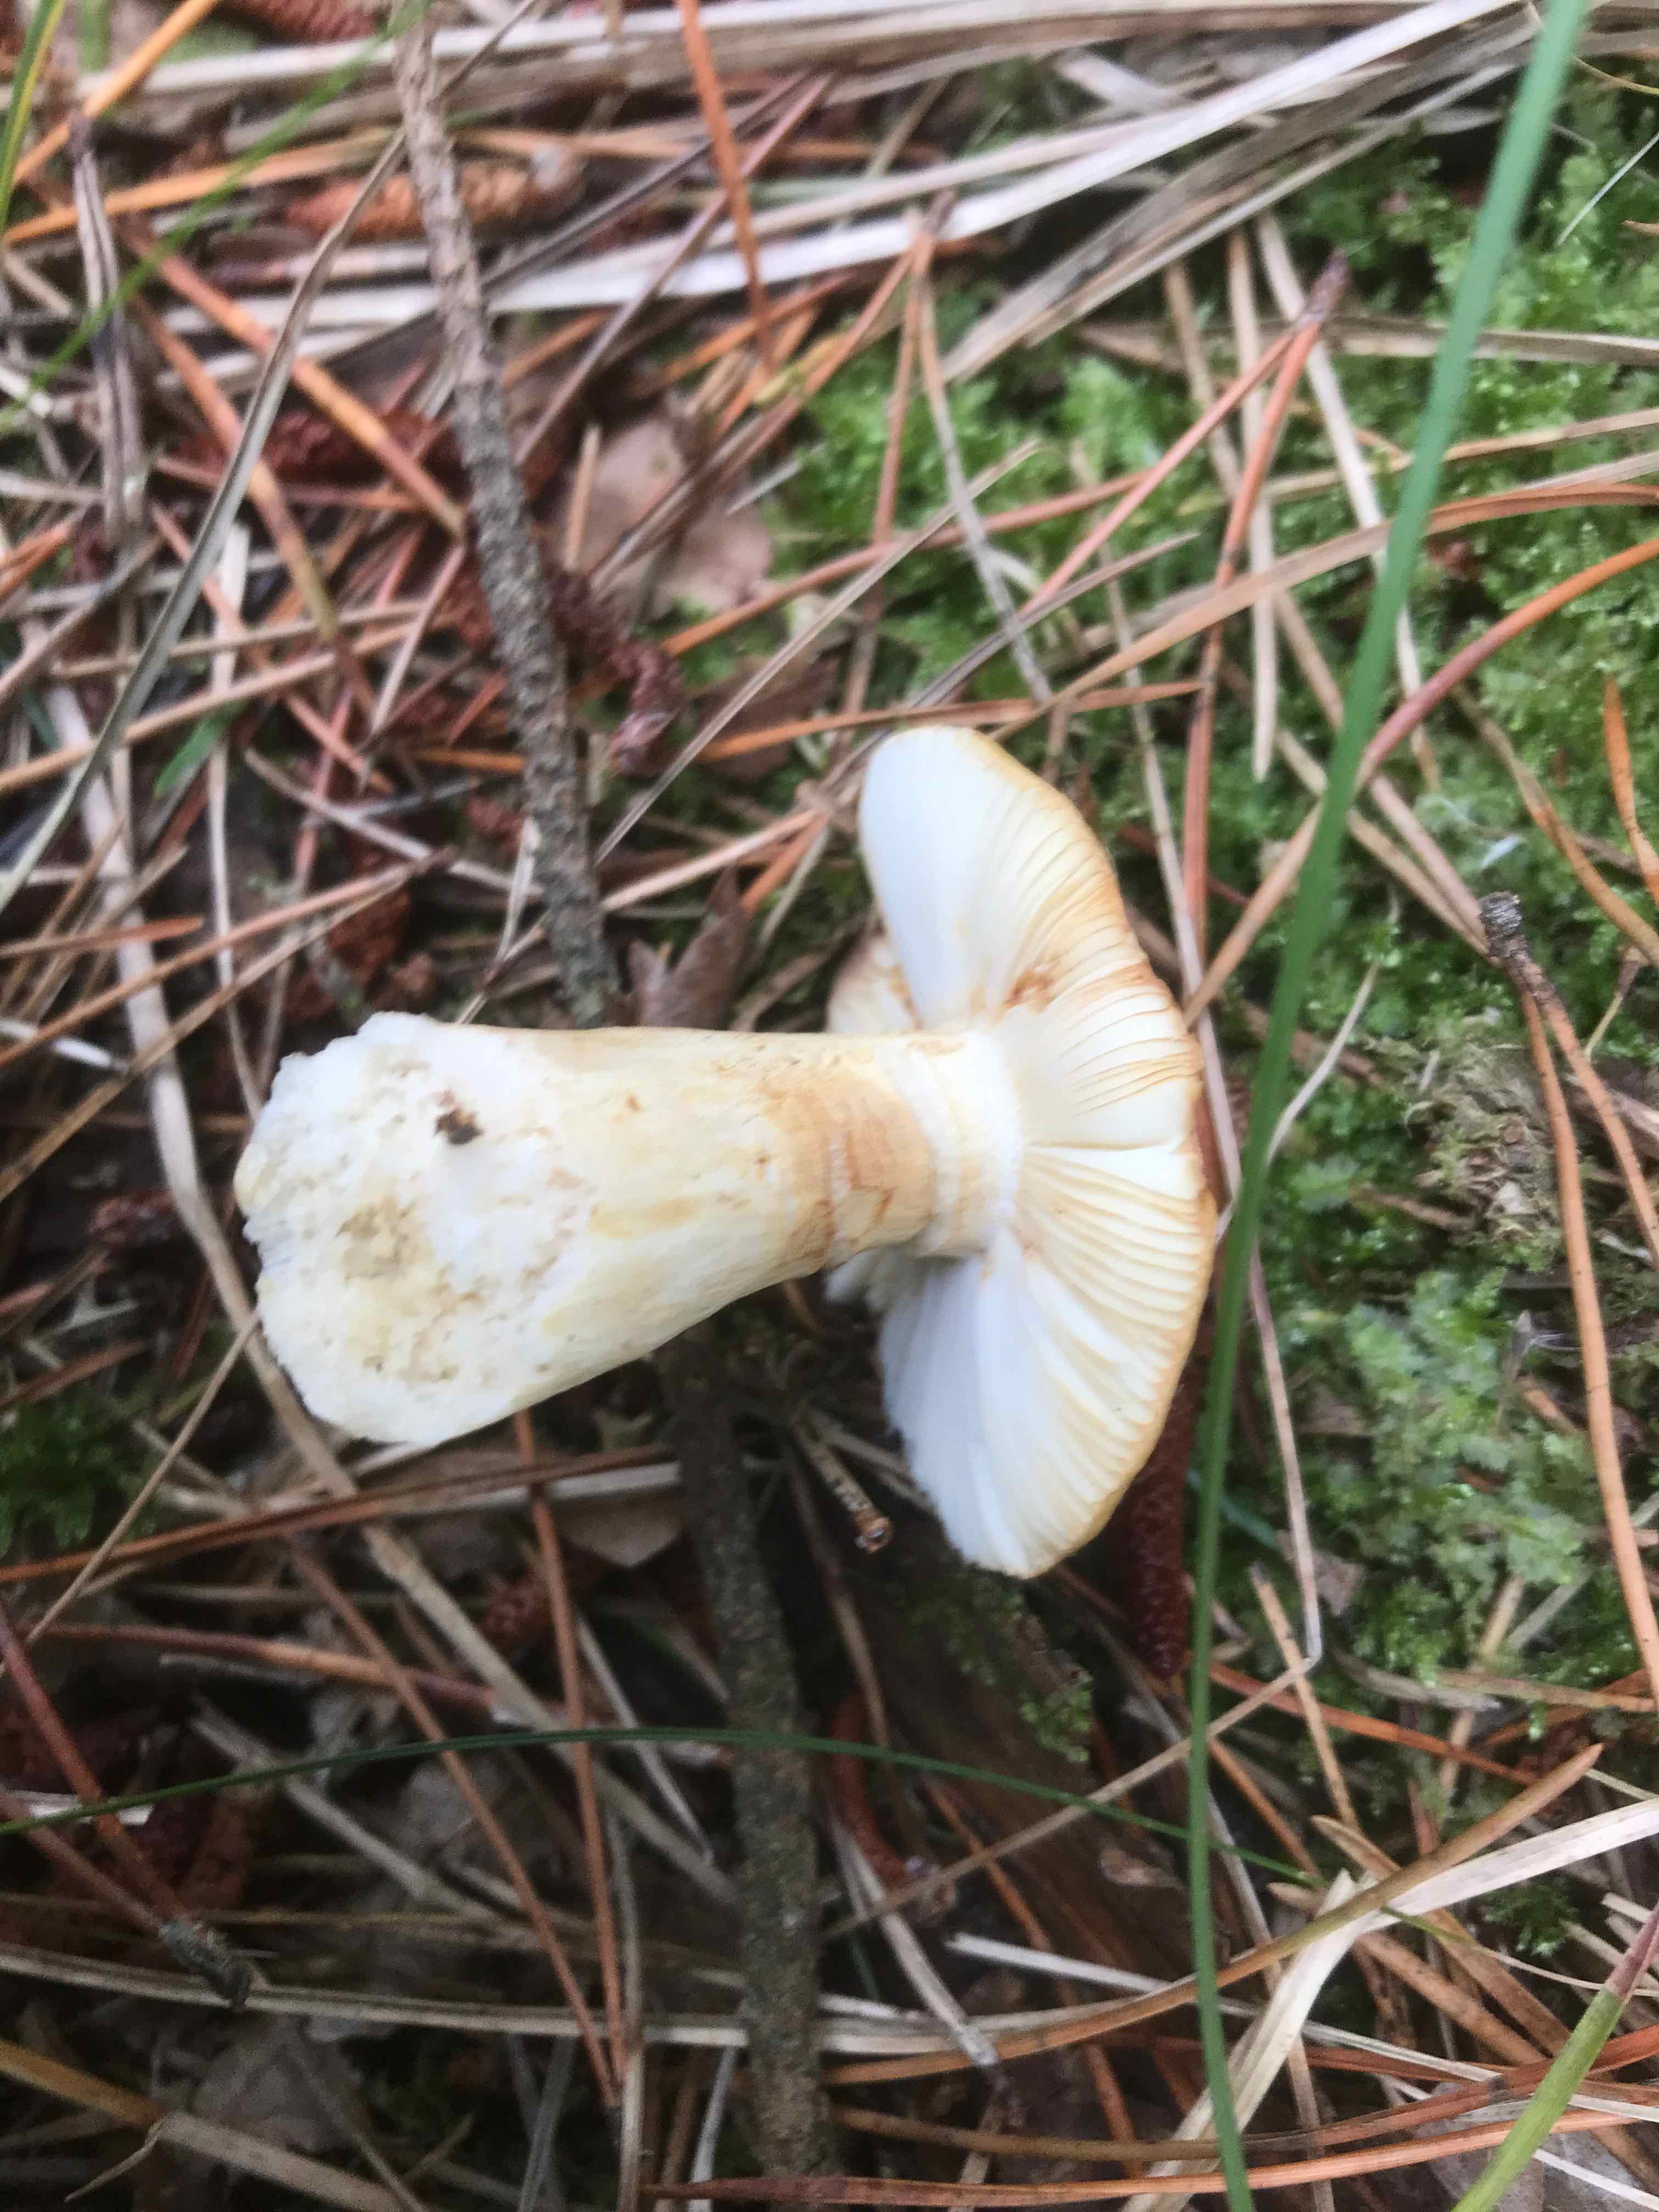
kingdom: Fungi
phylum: Basidiomycota
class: Agaricomycetes
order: Russulales
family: Russulaceae
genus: Russula
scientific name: Russula
